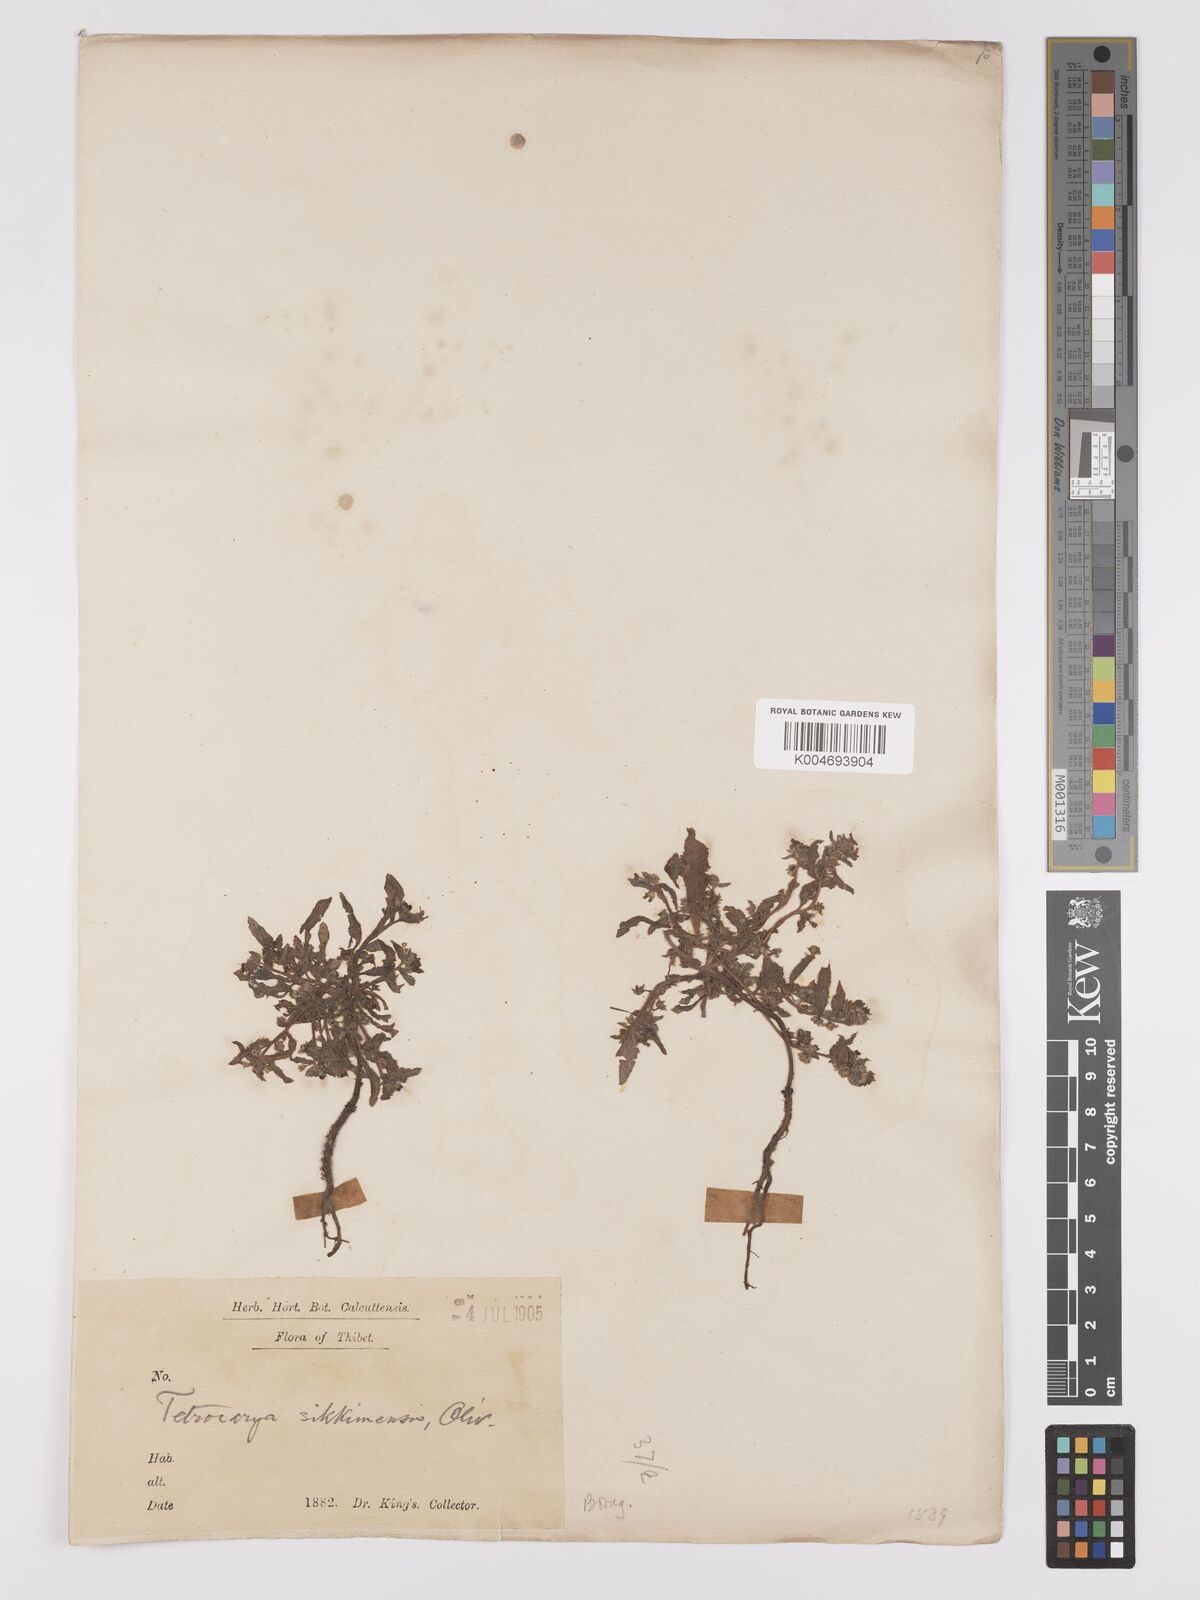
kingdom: Plantae
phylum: Tracheophyta
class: Magnoliopsida
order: Boraginales
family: Boraginaceae
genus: Microula
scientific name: Microula sikkimensis
